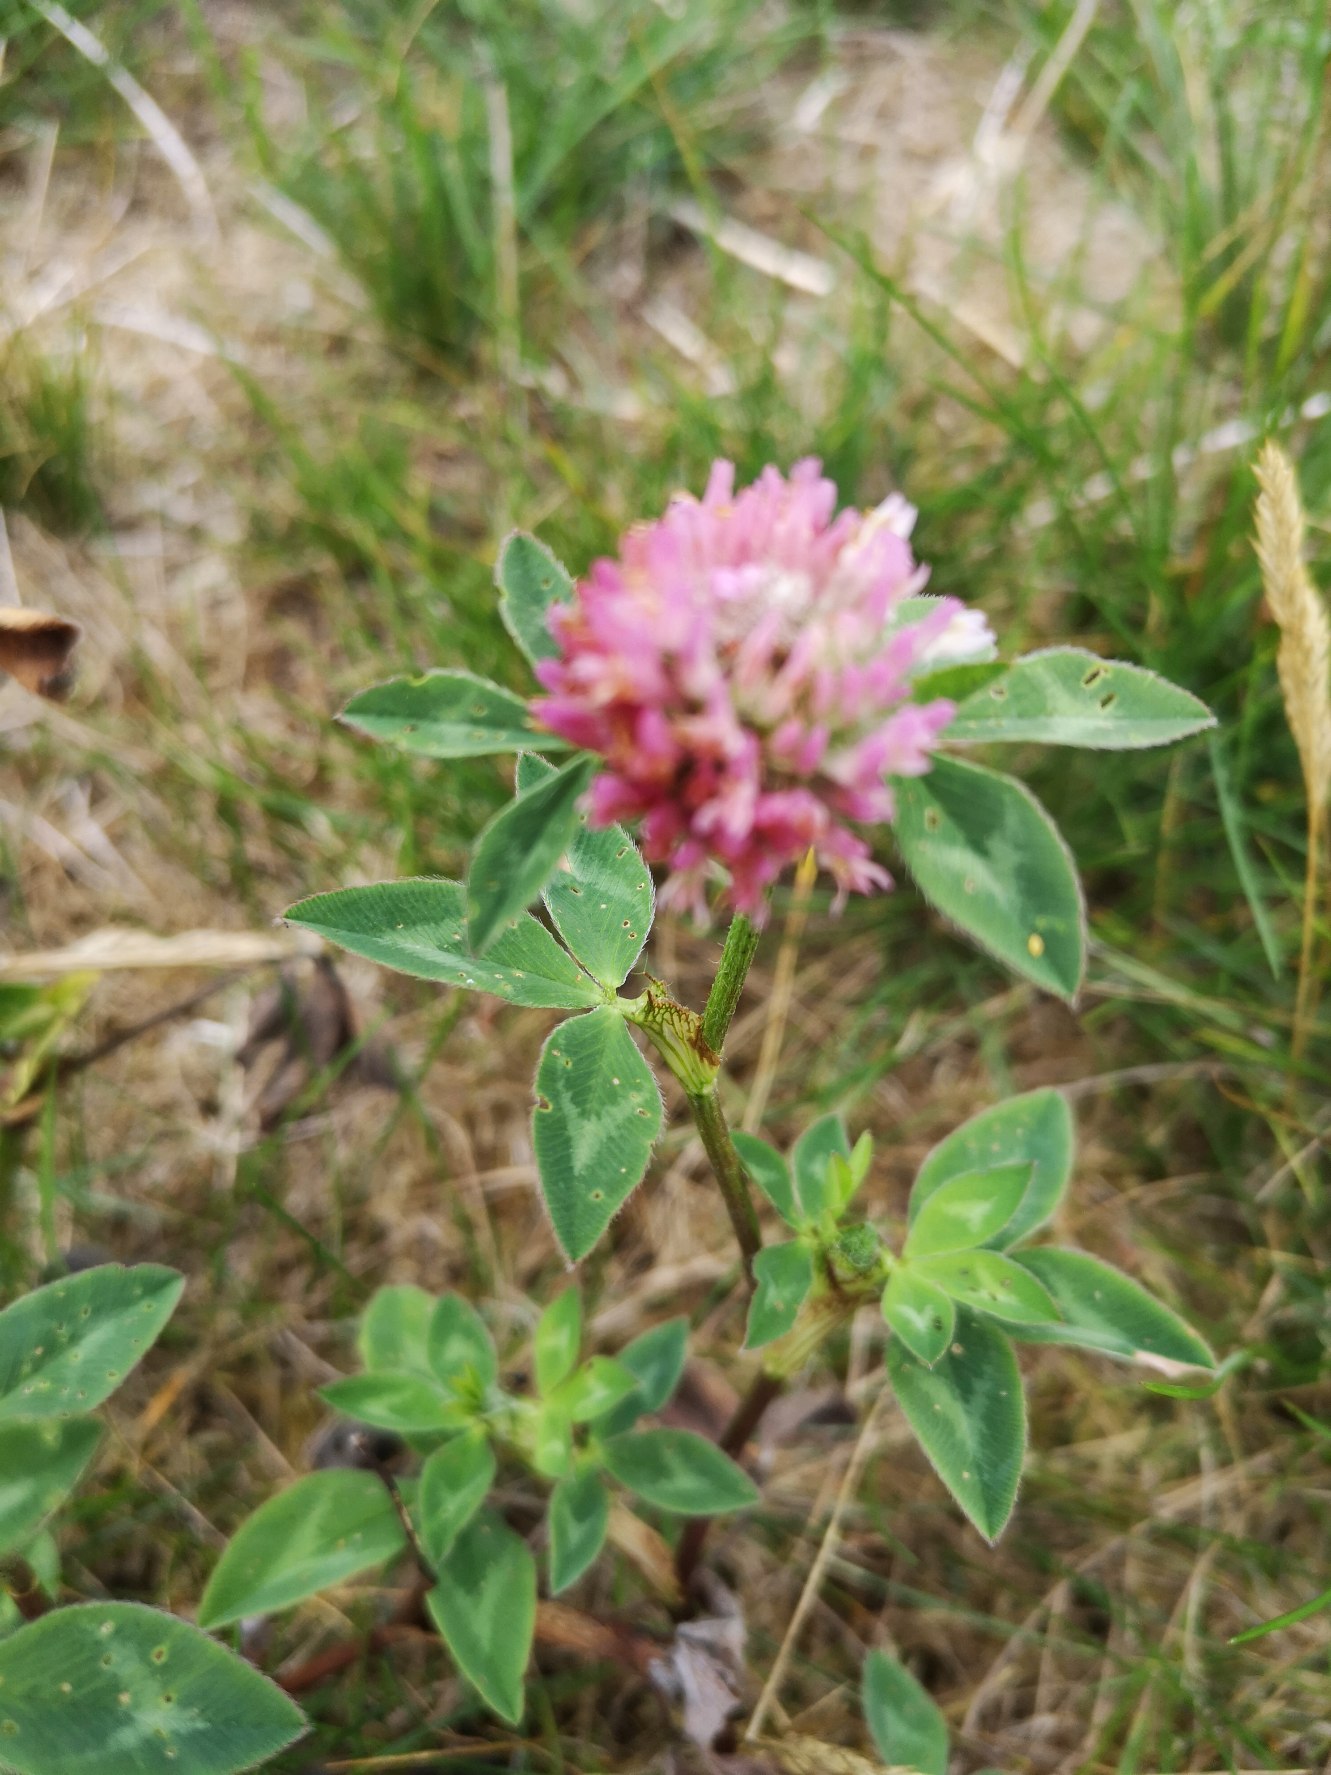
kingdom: Plantae
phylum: Tracheophyta
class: Magnoliopsida
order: Fabales
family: Fabaceae
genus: Trifolium
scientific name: Trifolium pratense
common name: Rød-kløver
